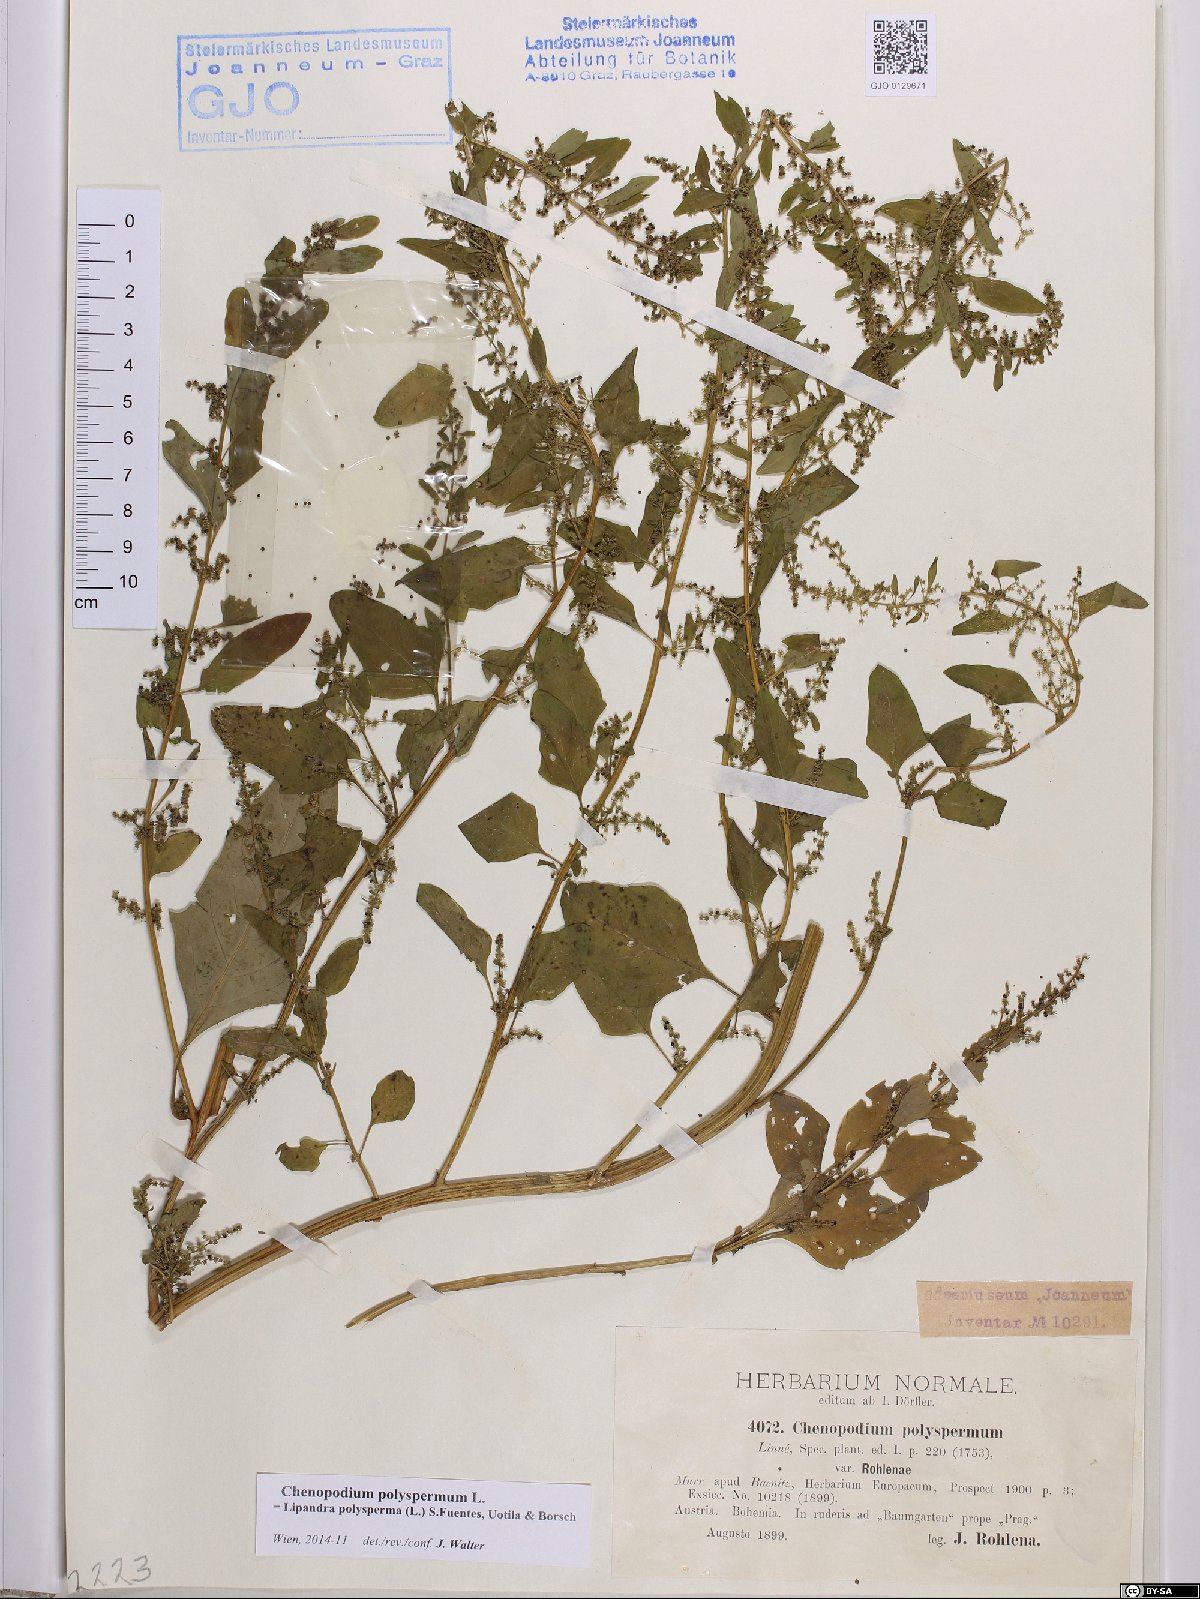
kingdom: Plantae
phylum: Tracheophyta
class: Magnoliopsida
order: Caryophyllales
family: Amaranthaceae
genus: Lipandra
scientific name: Lipandra polysperma
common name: Many-seed goosefoot
